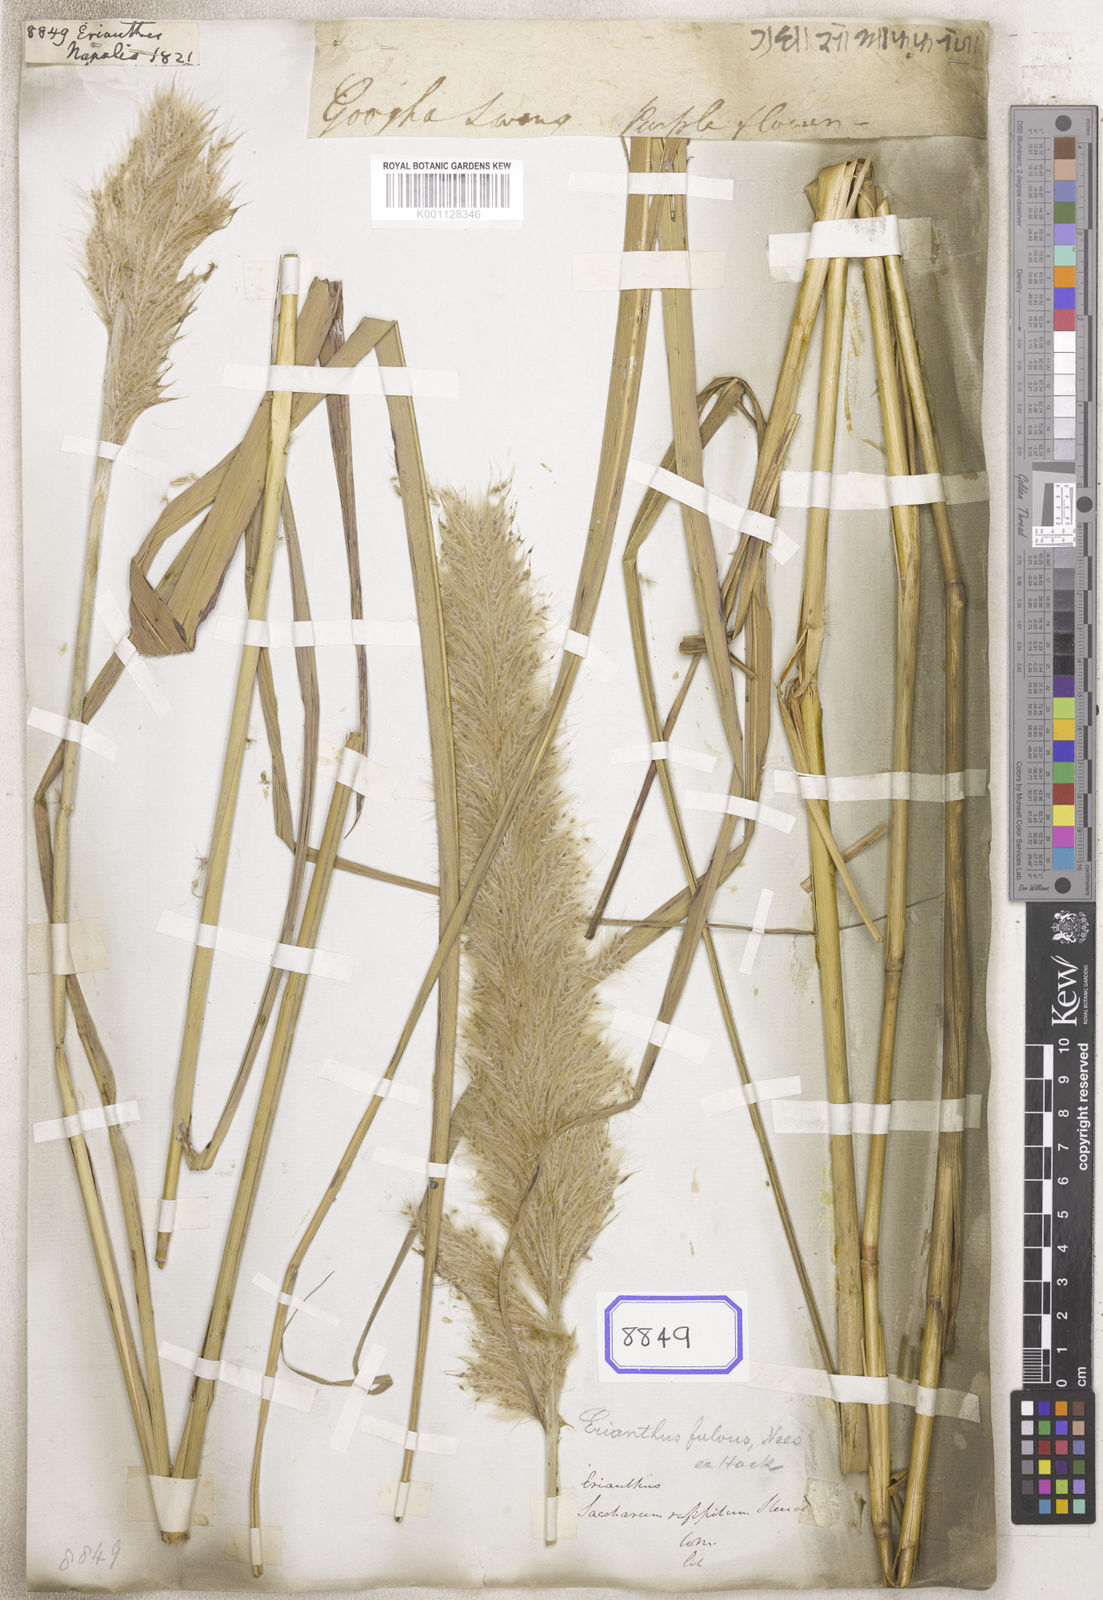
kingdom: Plantae
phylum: Tracheophyta
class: Liliopsida
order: Poales
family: Poaceae
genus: Erianthus
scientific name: Erianthus
